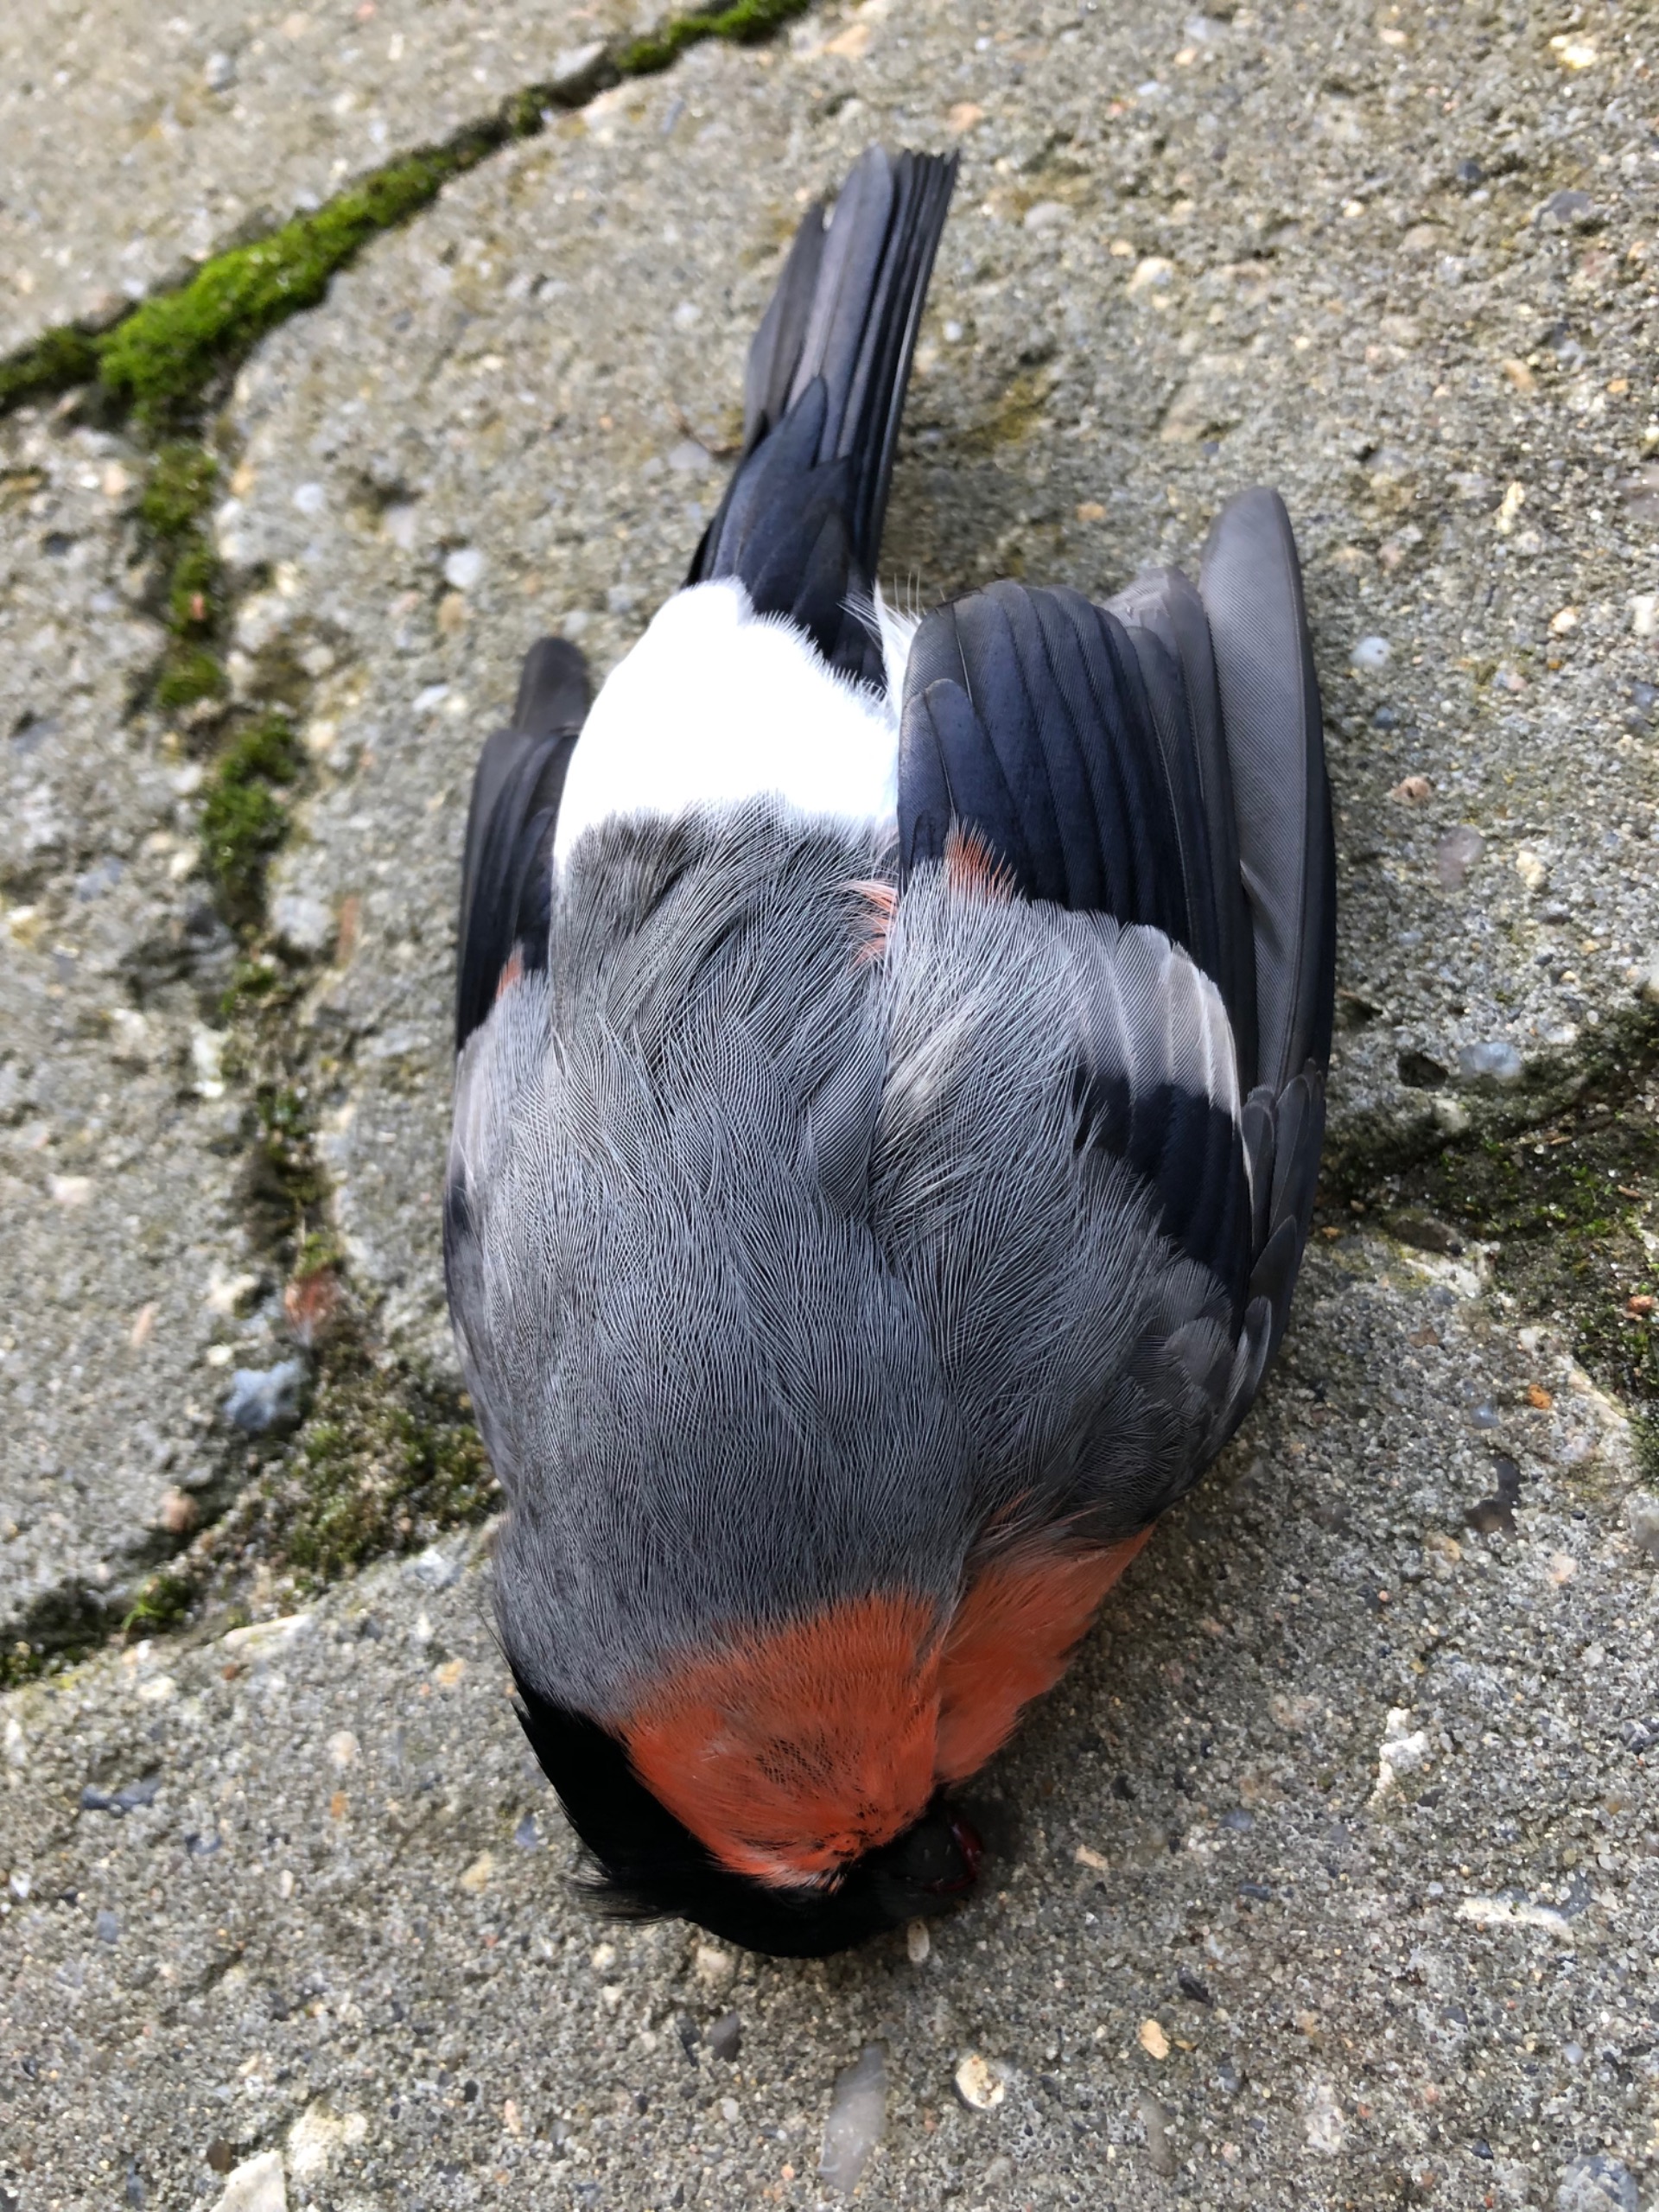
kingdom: Animalia
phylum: Chordata
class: Aves
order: Passeriformes
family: Fringillidae
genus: Pyrrhula
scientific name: Pyrrhula pyrrhula
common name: Dompap
